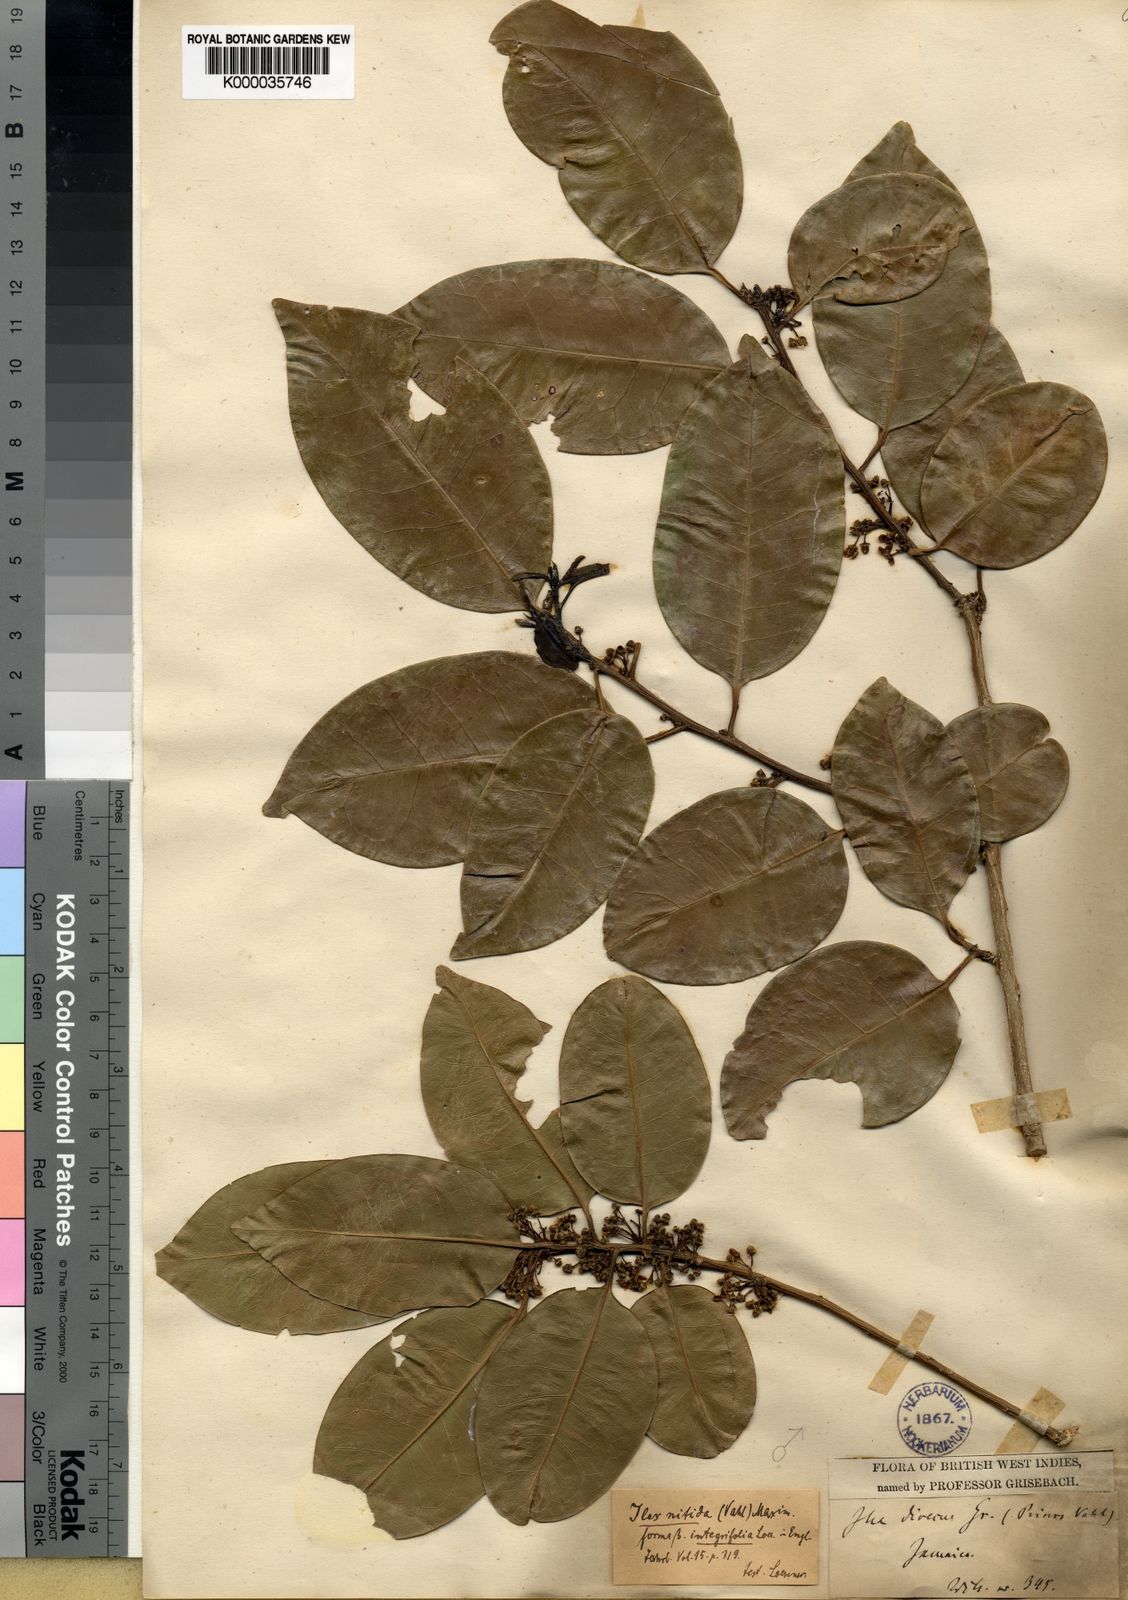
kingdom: Plantae
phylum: Tracheophyta
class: Magnoliopsida
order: Aquifoliales
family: Aquifoliaceae
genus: Ilex
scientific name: Ilex nitida
